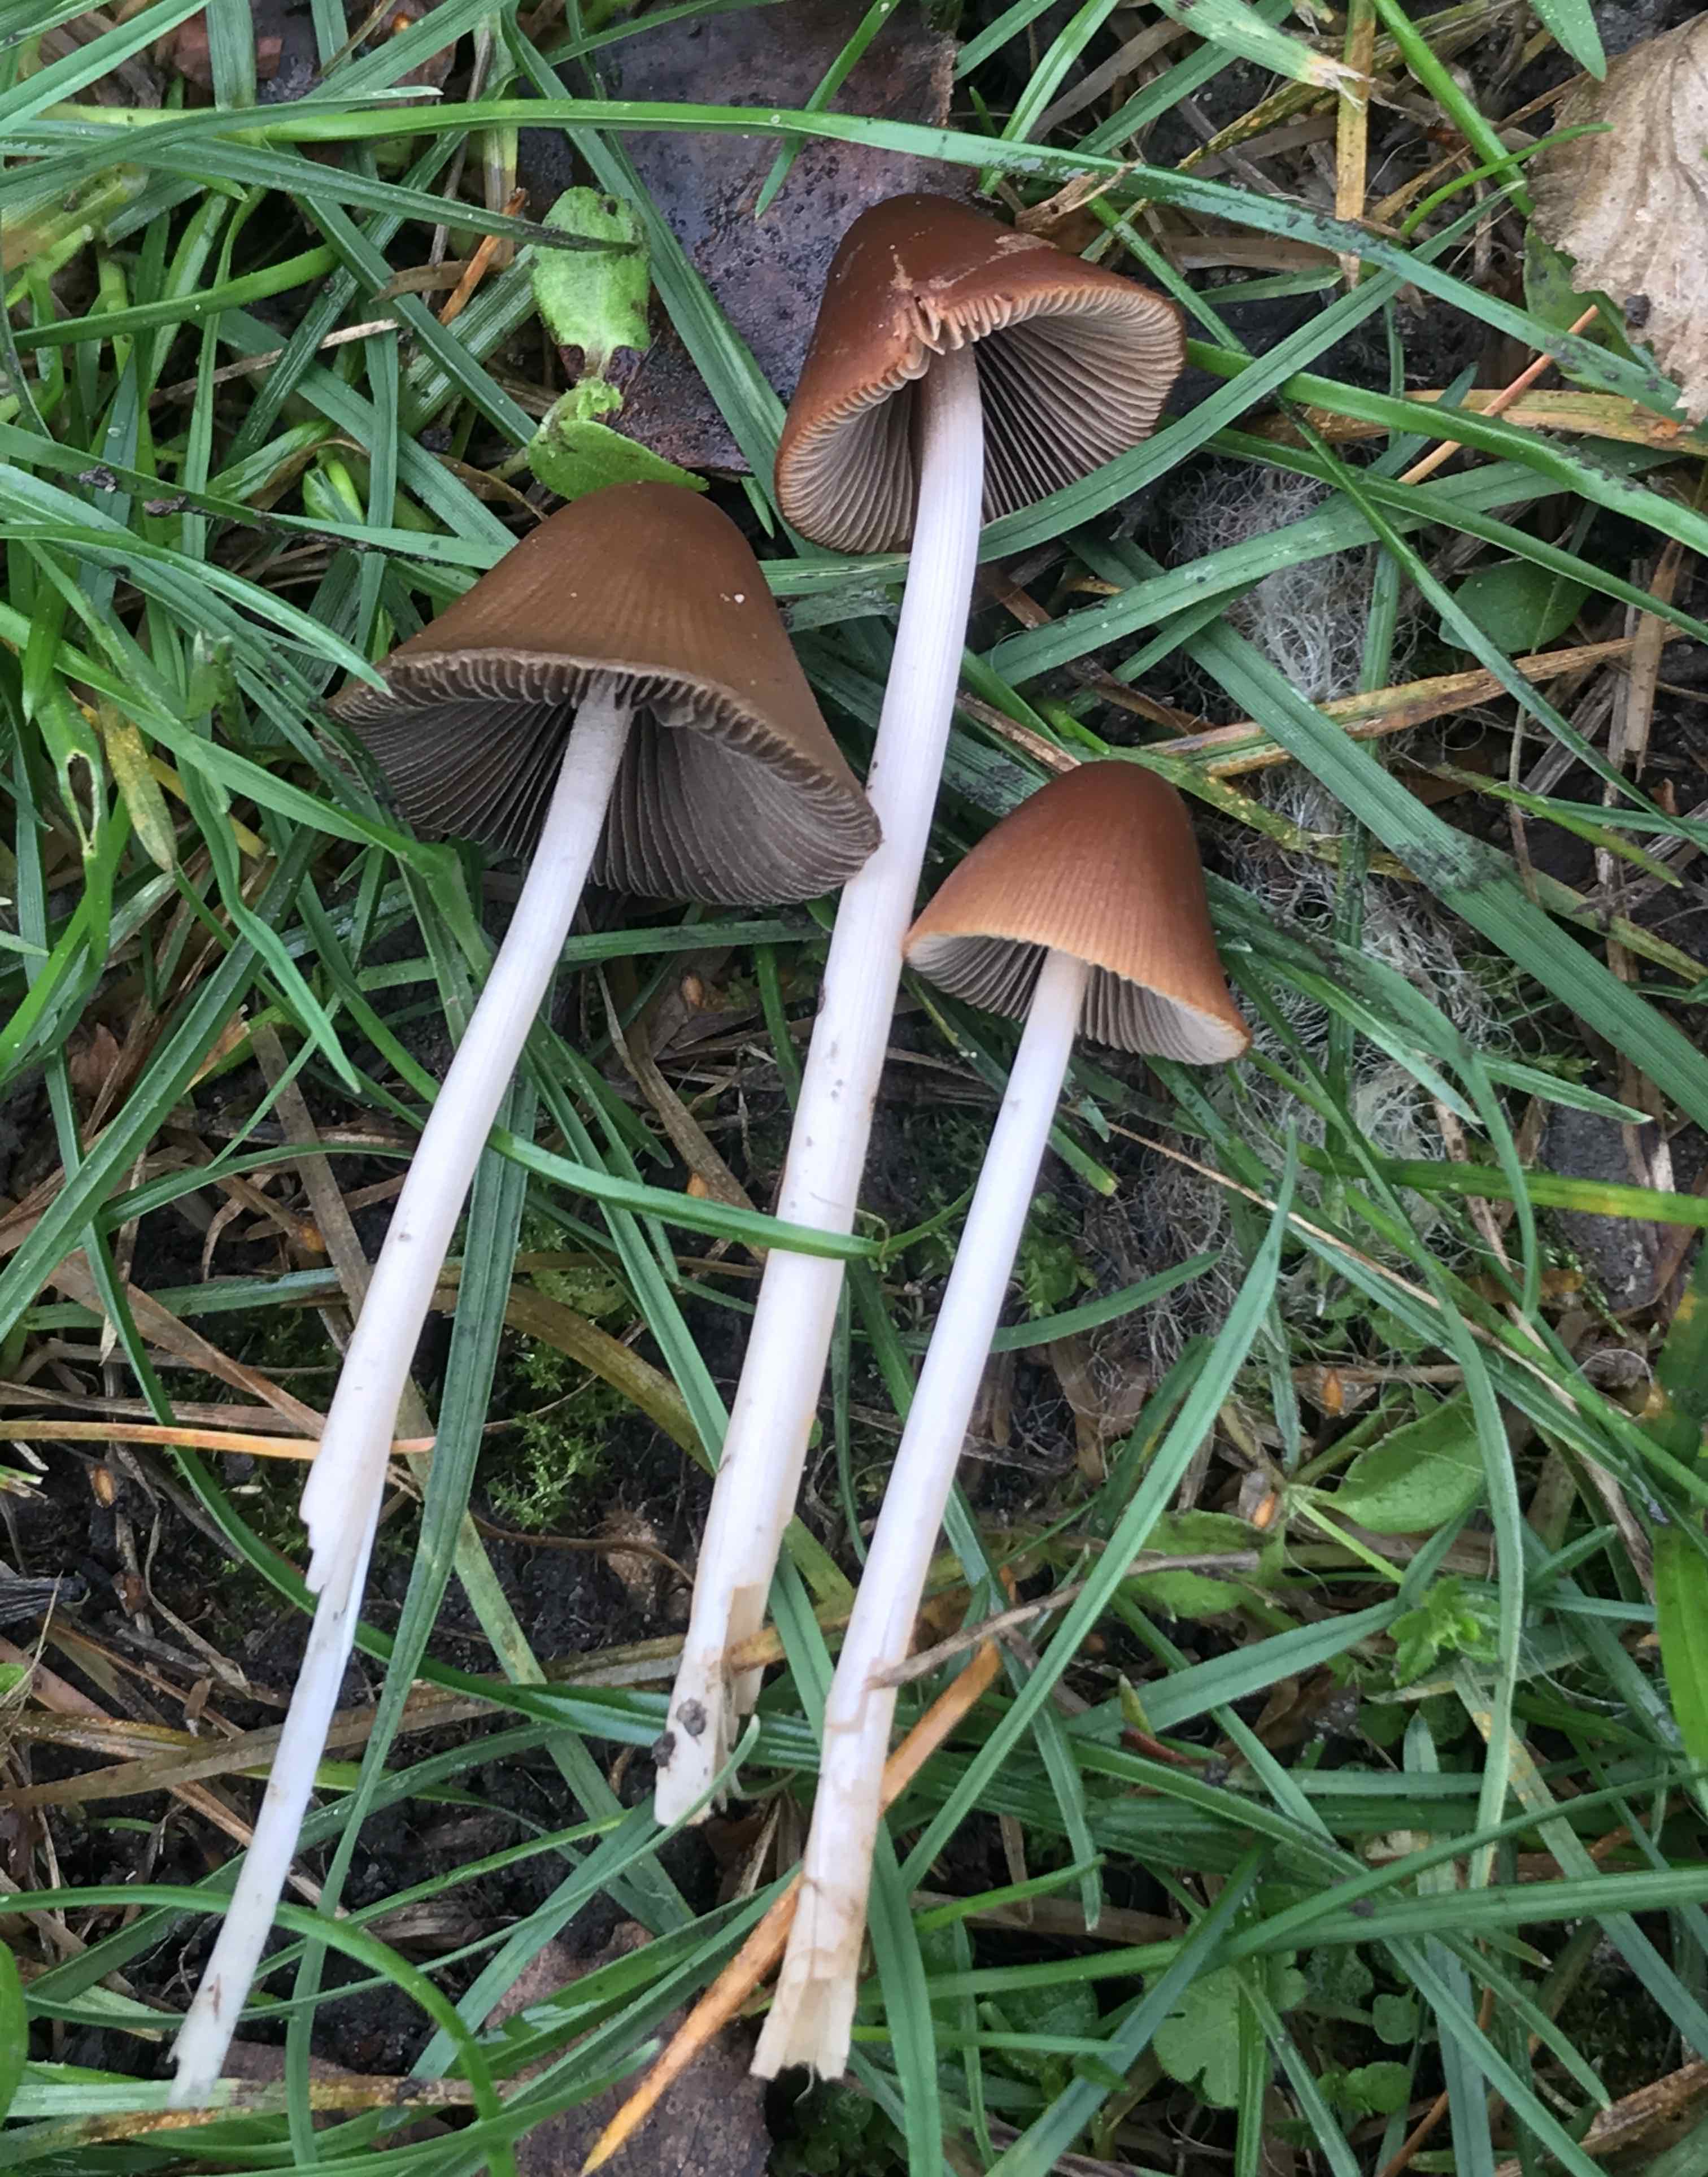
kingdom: Fungi
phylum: Basidiomycota
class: Agaricomycetes
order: Agaricales
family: Psathyrellaceae
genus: Parasola
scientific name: Parasola conopilea
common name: kegle-hjulhat
